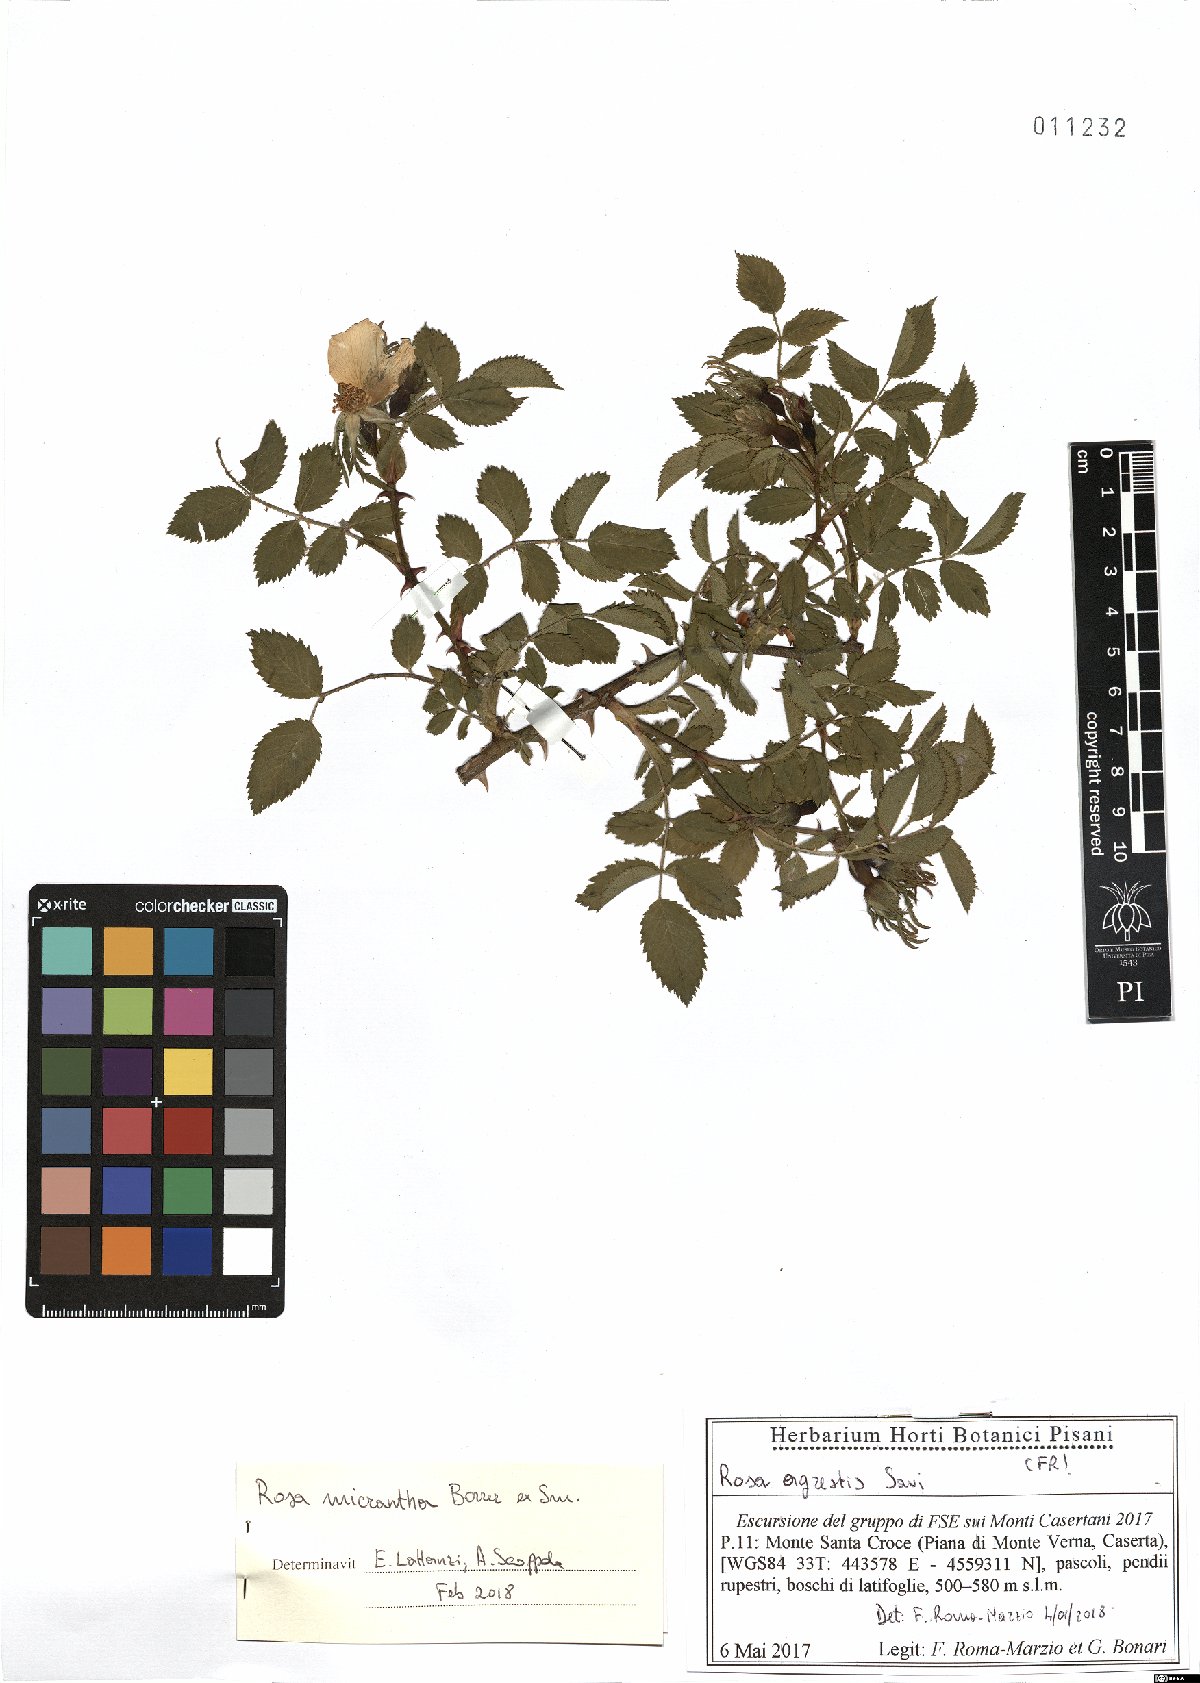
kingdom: Plantae
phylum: Tracheophyta
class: Magnoliopsida
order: Rosales
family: Rosaceae
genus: Rosa
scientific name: Rosa micrantha
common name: Small-flowered sweet-briar
